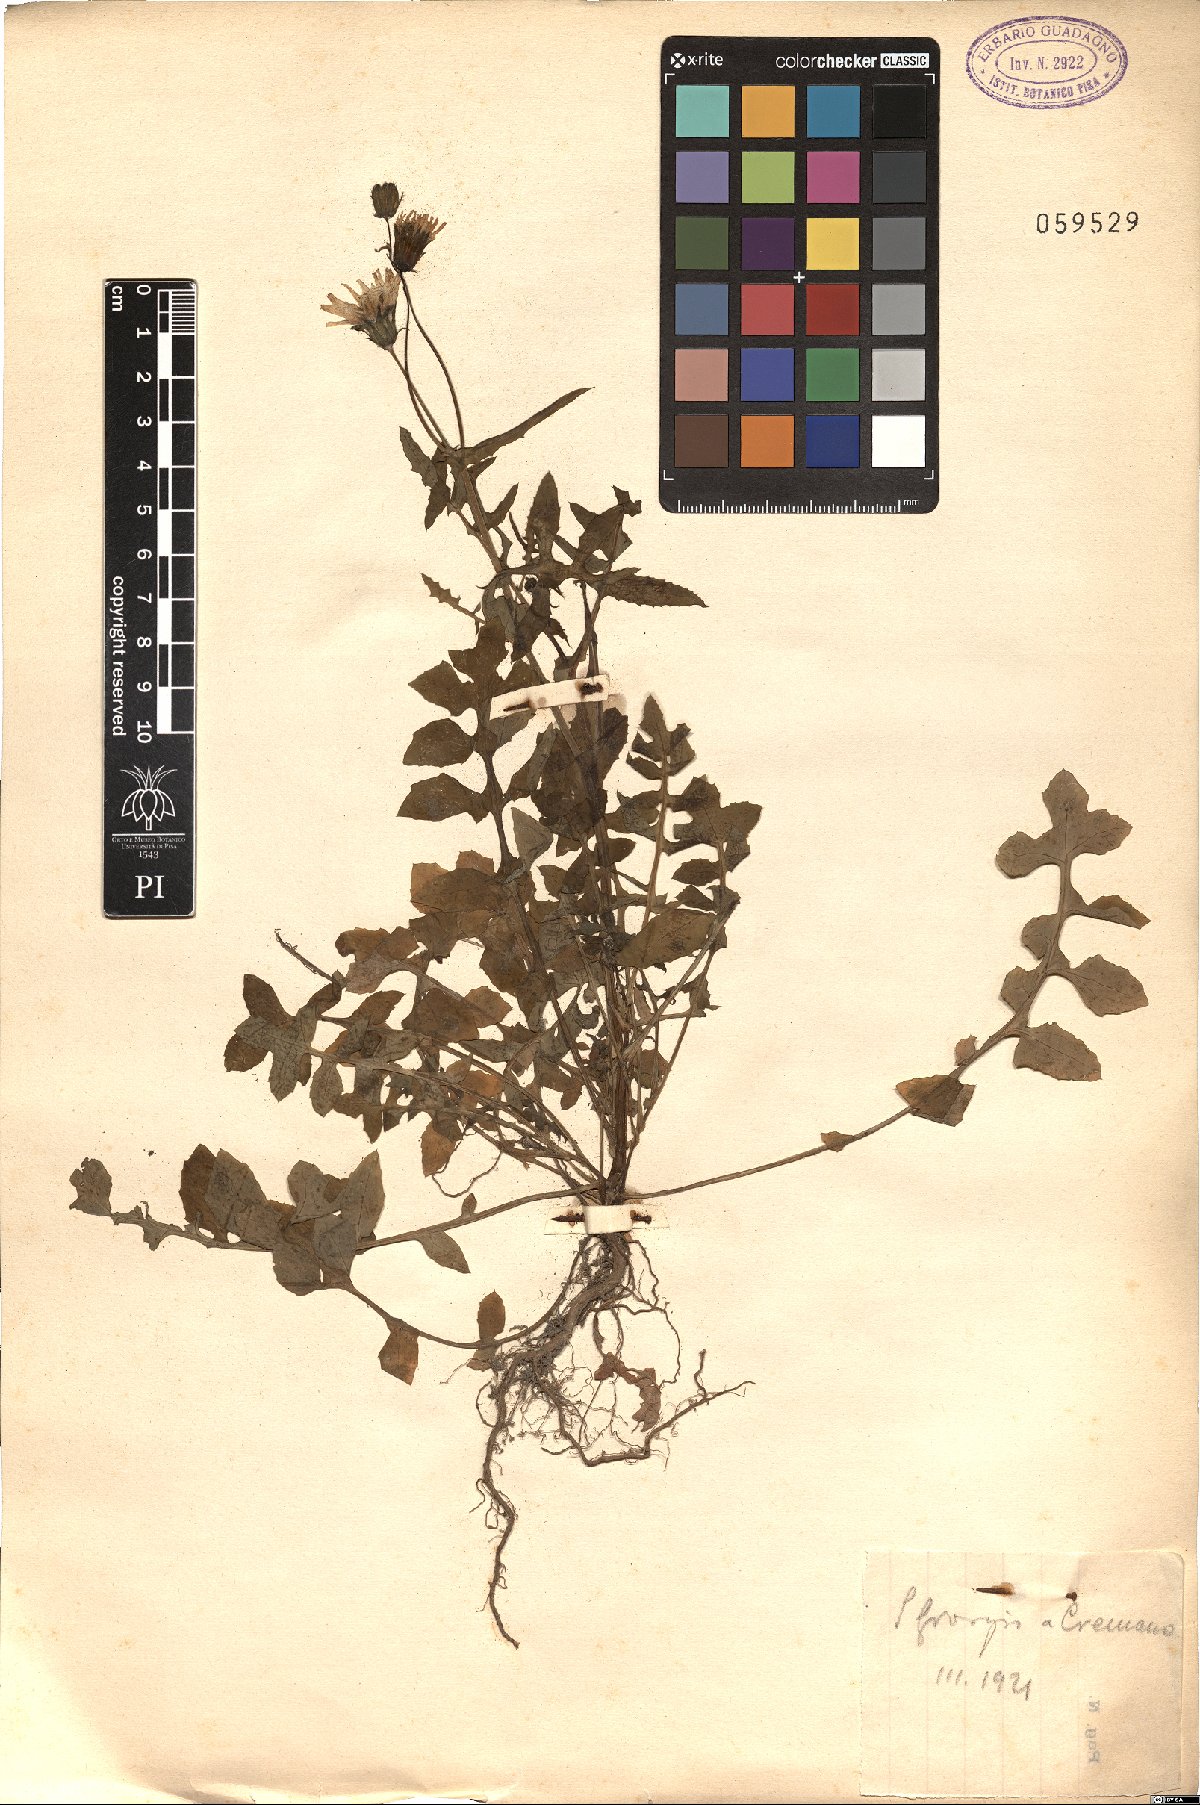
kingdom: Plantae
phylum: Tracheophyta
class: Magnoliopsida
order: Asterales
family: Asteraceae
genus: Sonchus
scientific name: Sonchus tenerrimus
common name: Clammy sowthistle
